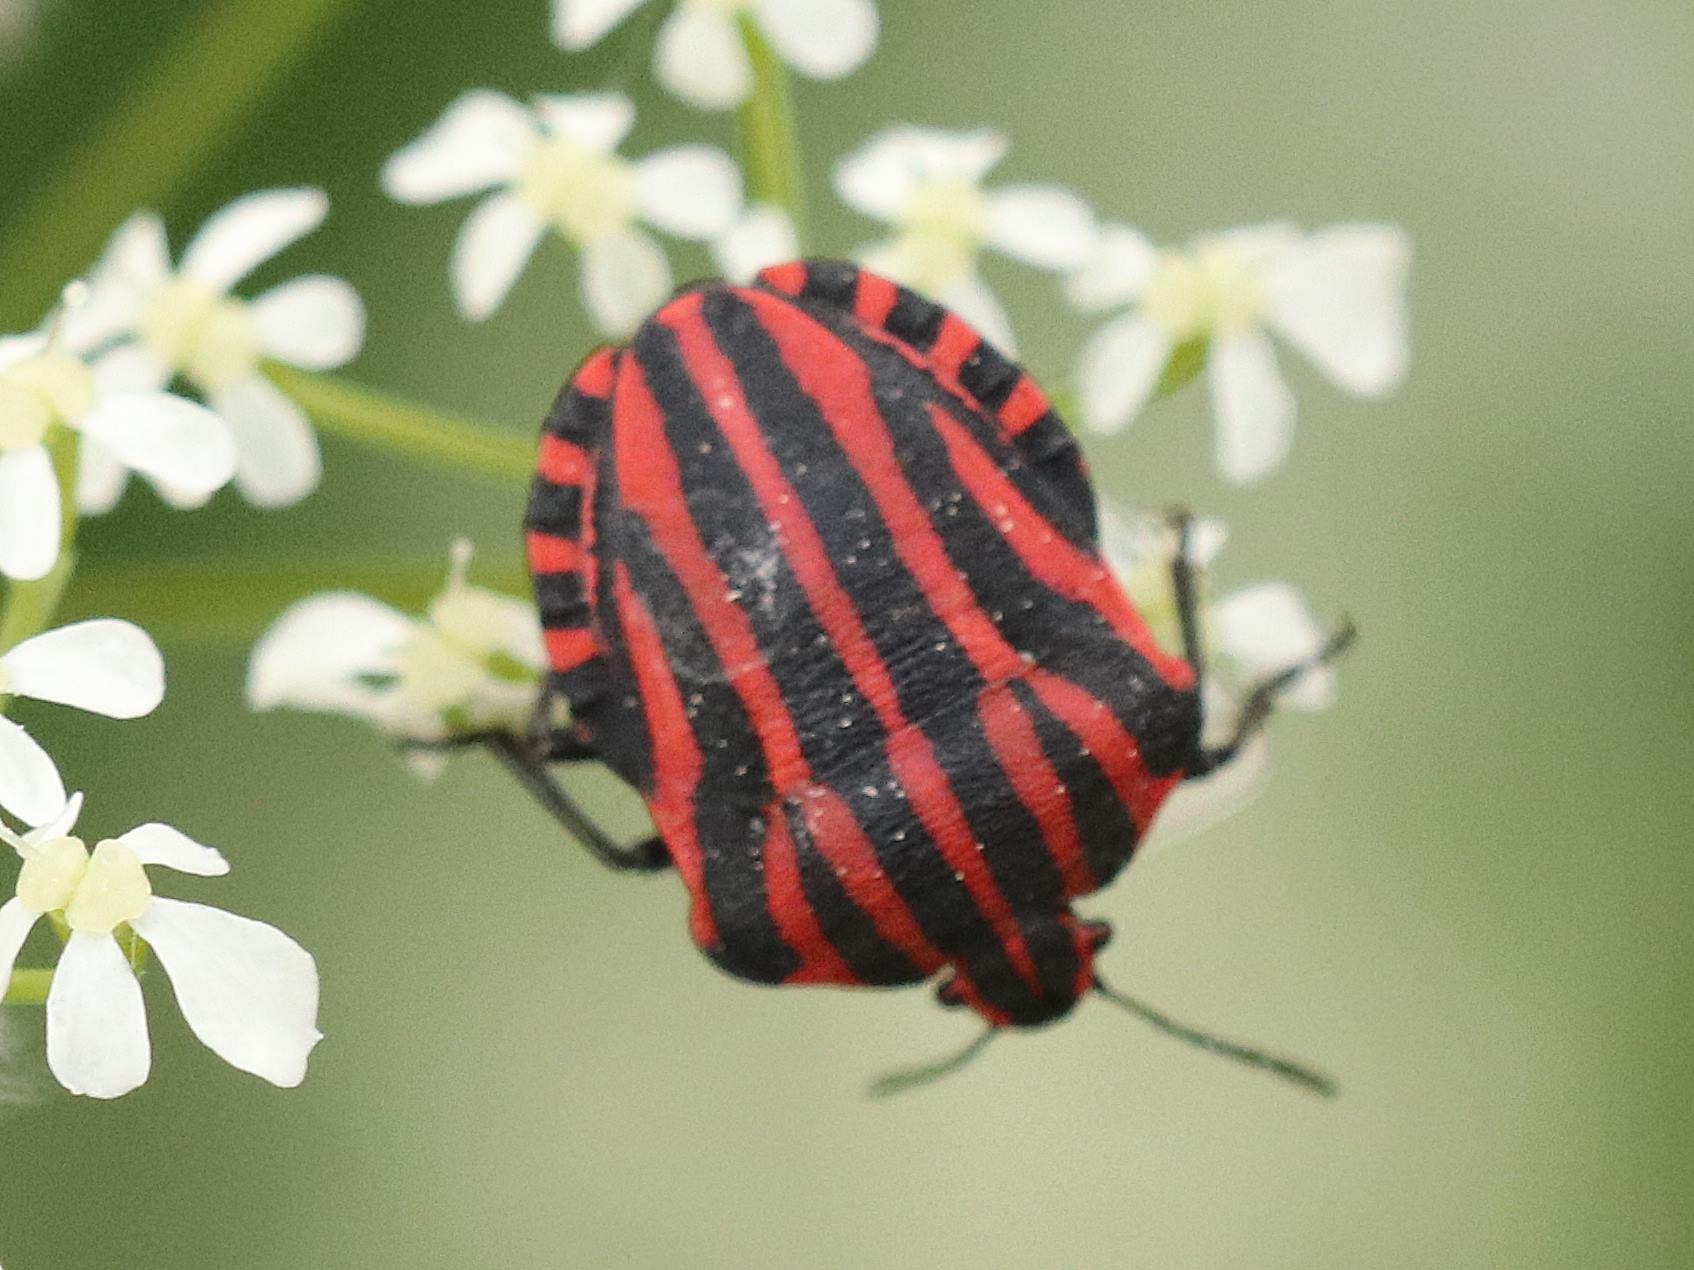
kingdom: Animalia
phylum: Arthropoda
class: Insecta
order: Hemiptera
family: Pentatomidae
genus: Graphosoma
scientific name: Graphosoma italicum
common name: Stribetæge
